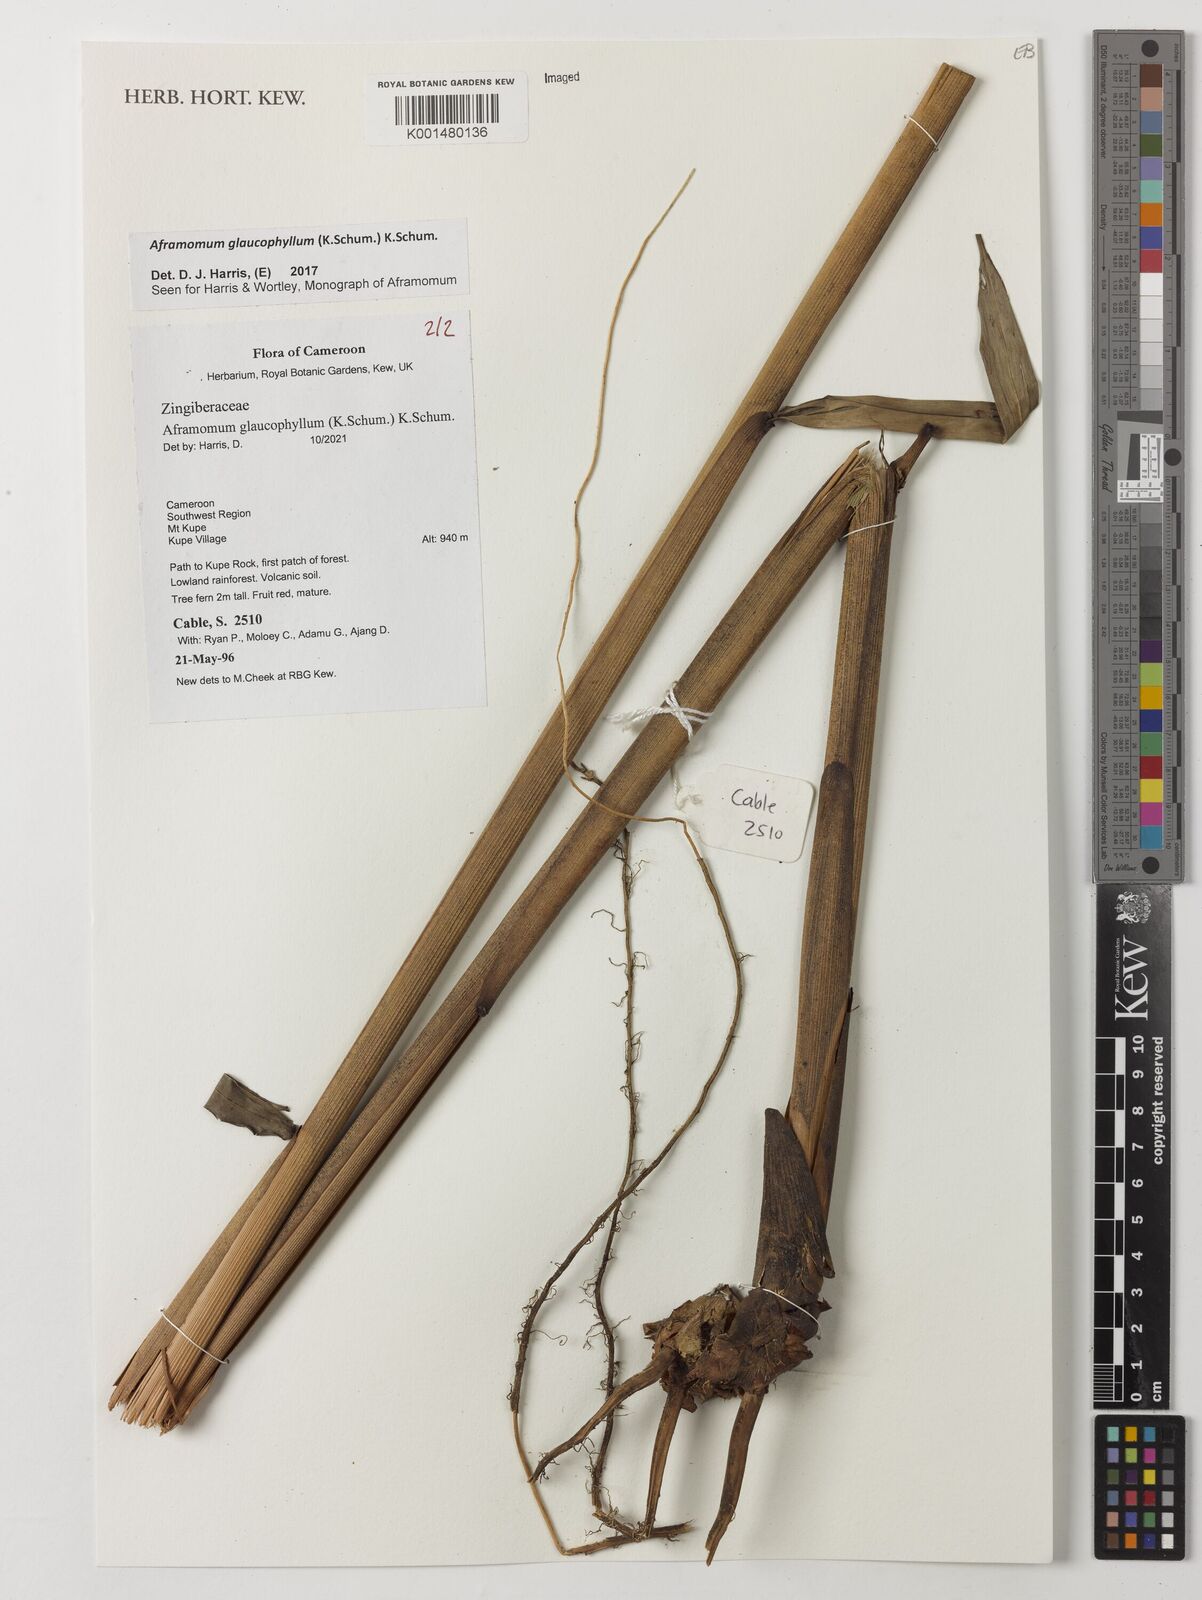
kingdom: Plantae
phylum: Tracheophyta
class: Liliopsida
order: Zingiberales
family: Zingiberaceae
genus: Aframomum
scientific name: Aframomum glaucophyllum
